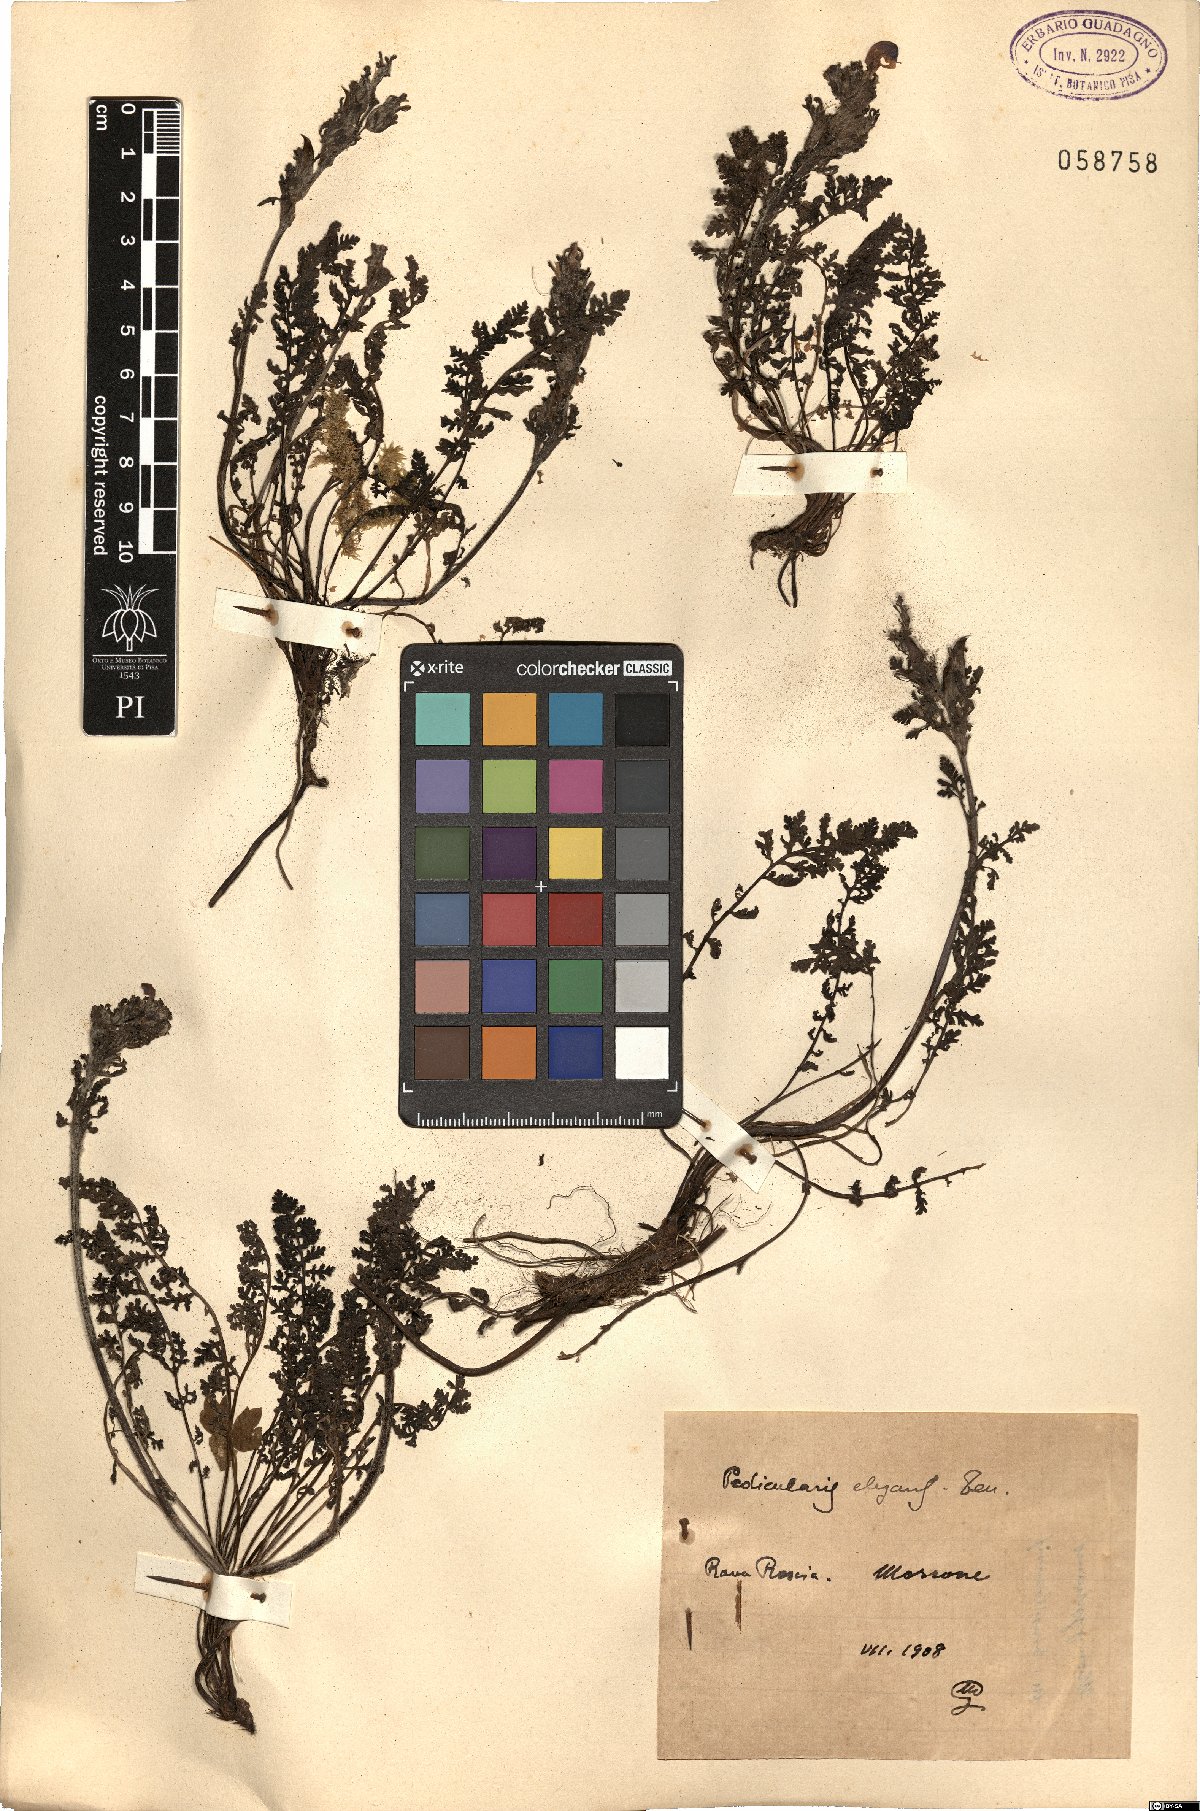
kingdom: Plantae
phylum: Tracheophyta
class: Magnoliopsida
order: Lamiales
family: Orobanchaceae
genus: Pedicularis
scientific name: Pedicularis elegans
